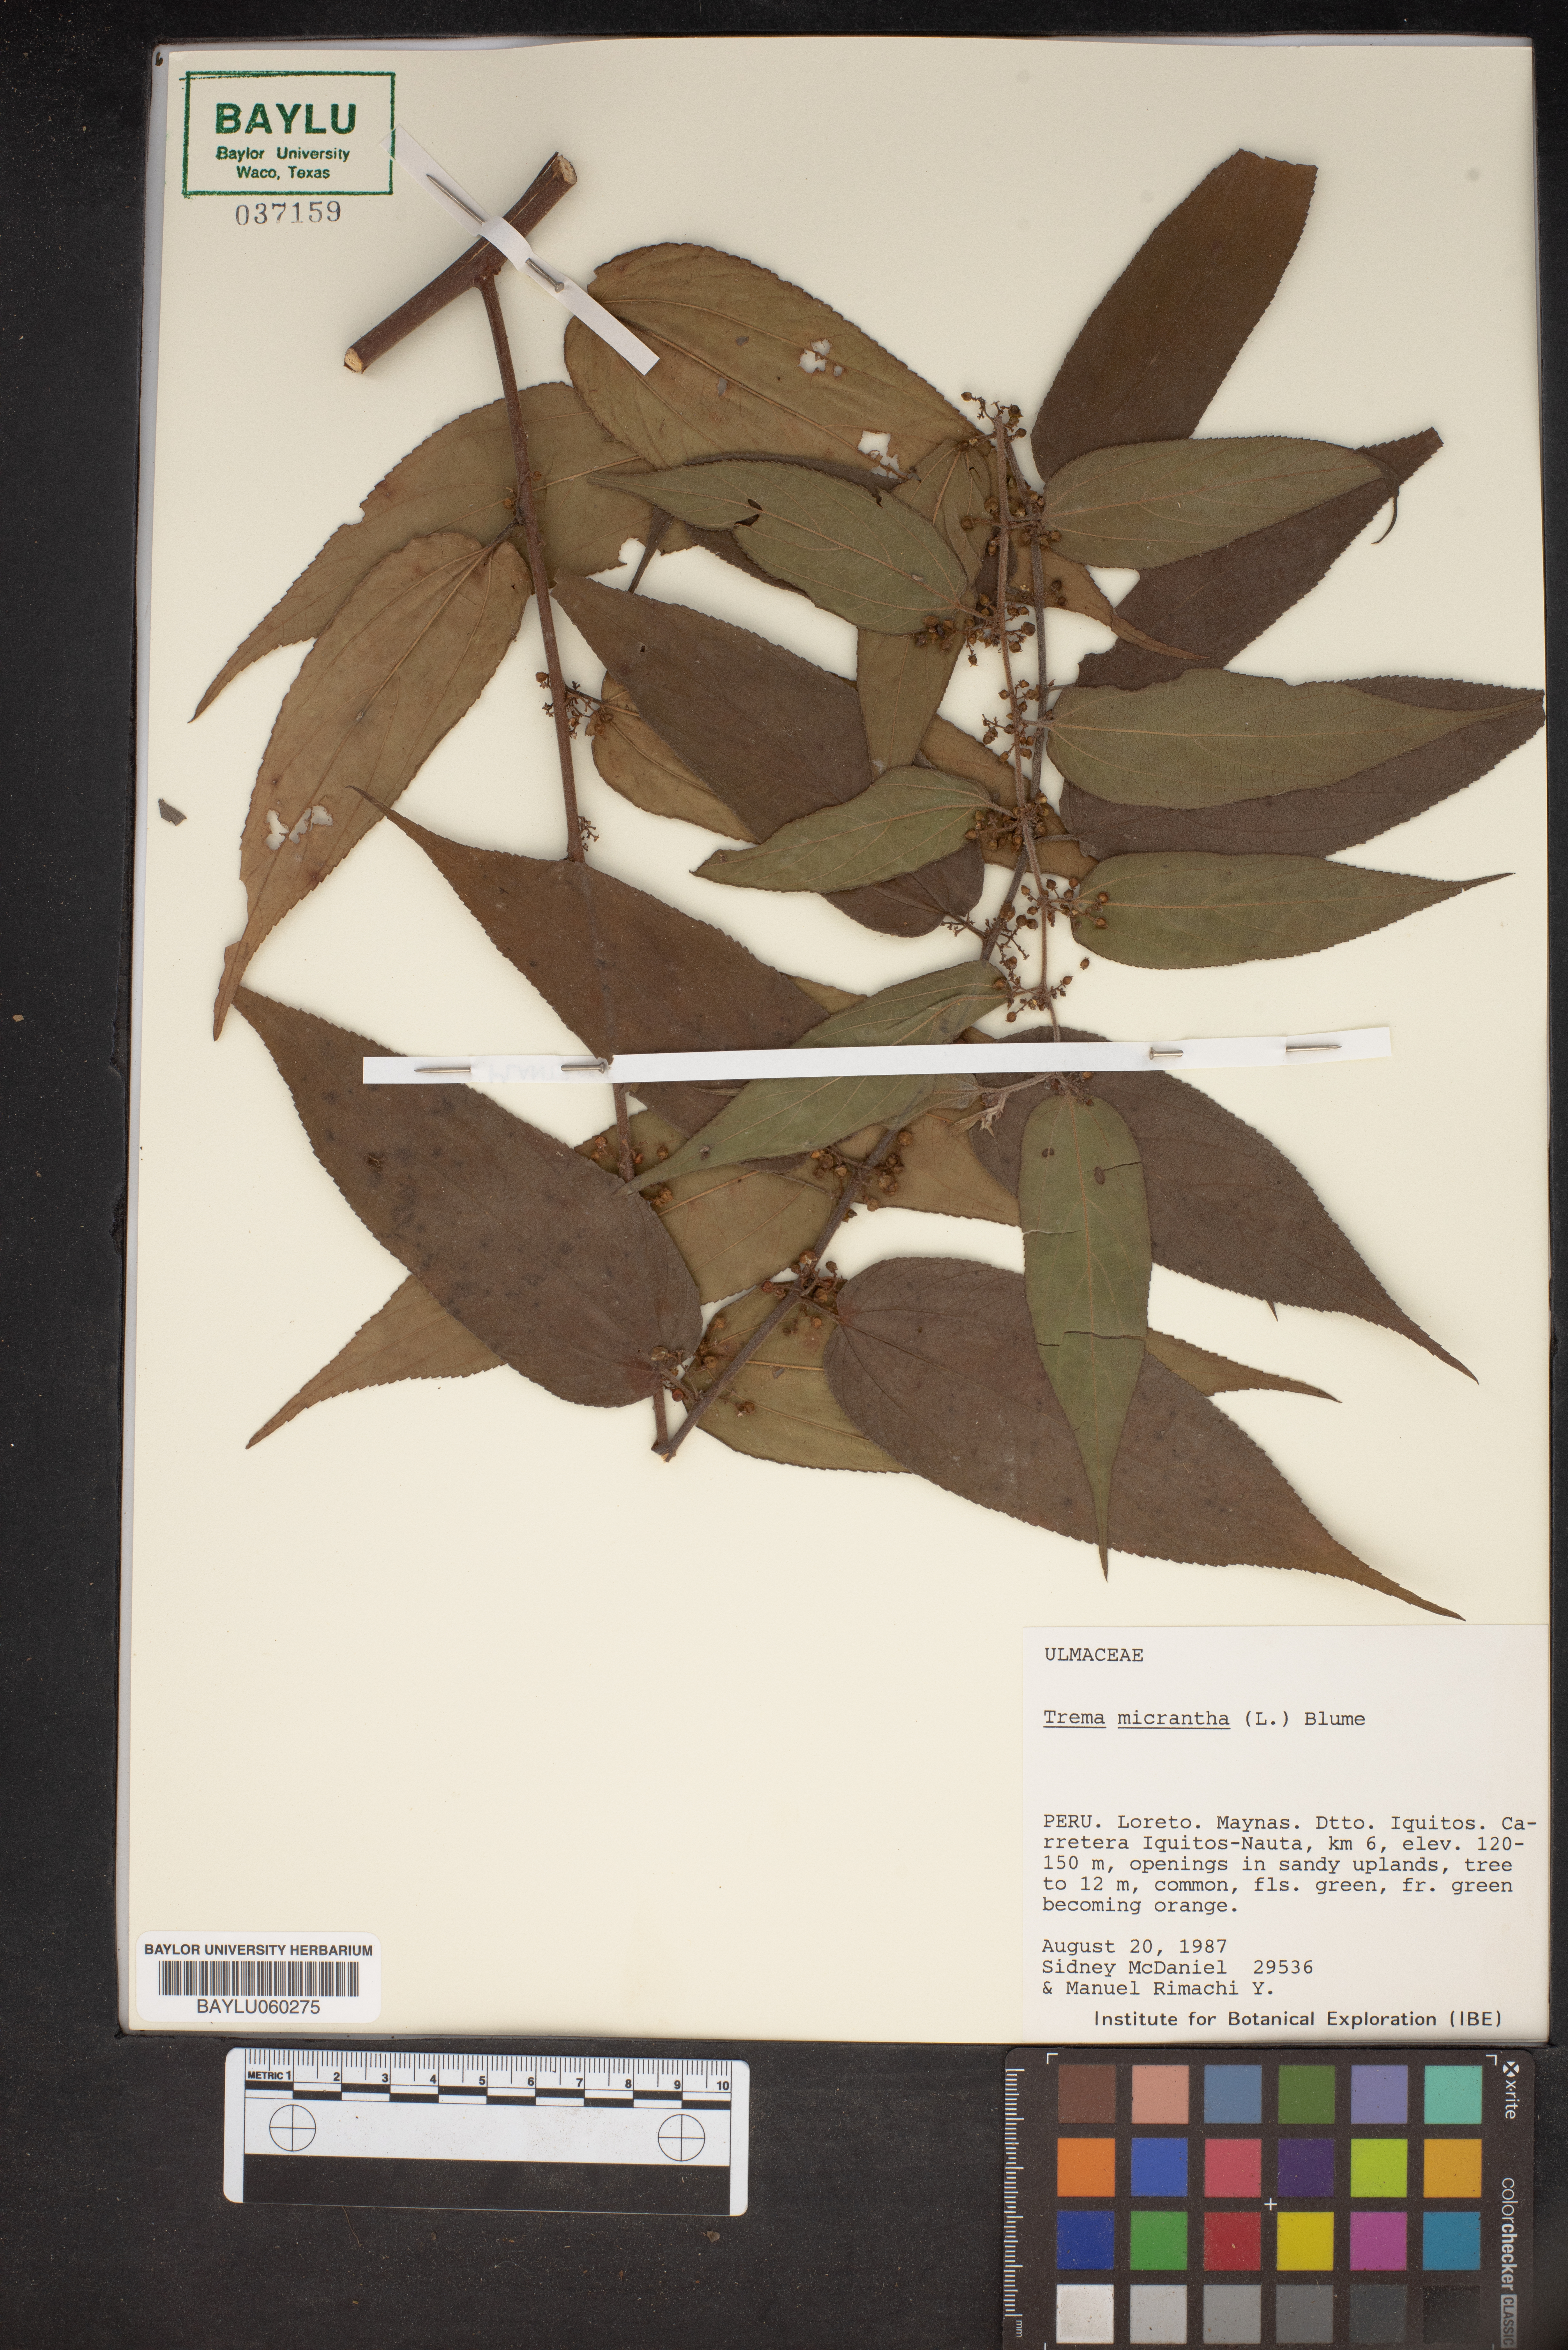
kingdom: Plantae
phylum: Tracheophyta
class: Magnoliopsida
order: Rosales
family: Cannabaceae
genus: Trema
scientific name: Trema micranthum
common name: Jamaican nettletree
